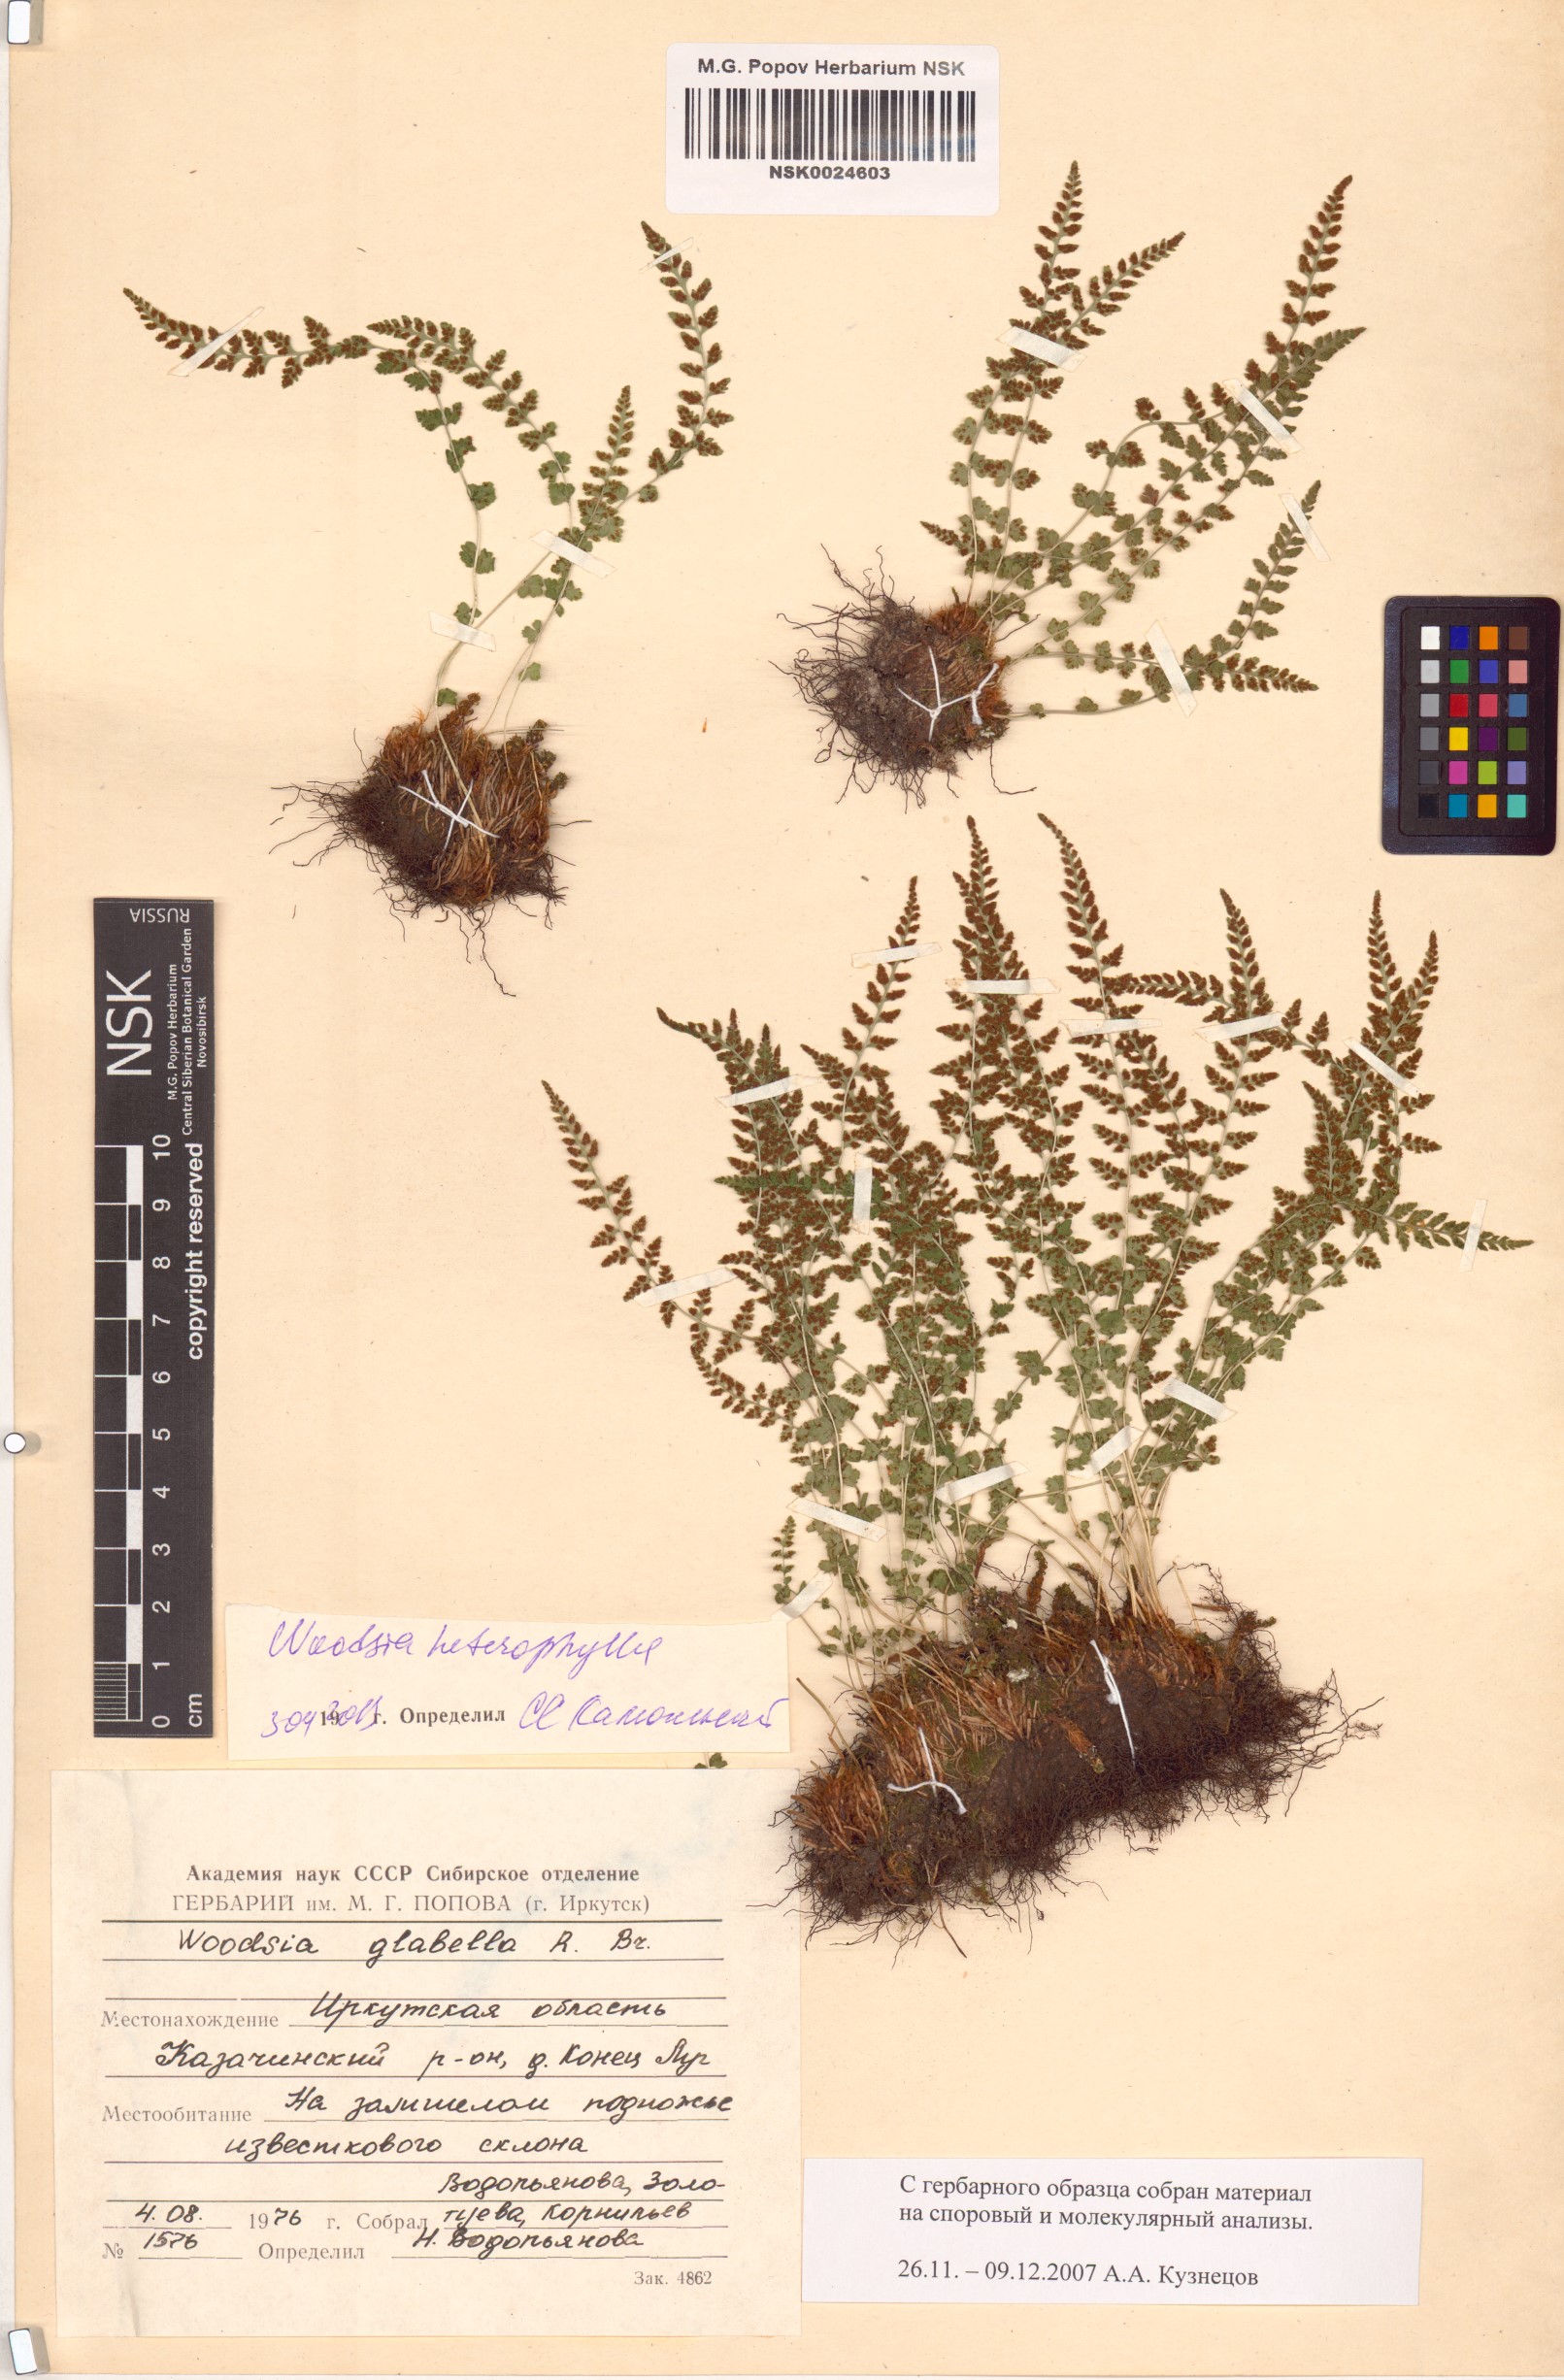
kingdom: Plantae
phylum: Tracheophyta
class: Polypodiopsida
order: Polypodiales
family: Woodsiaceae
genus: Woodsia
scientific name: Woodsia pulchella
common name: Graceful woodsia
